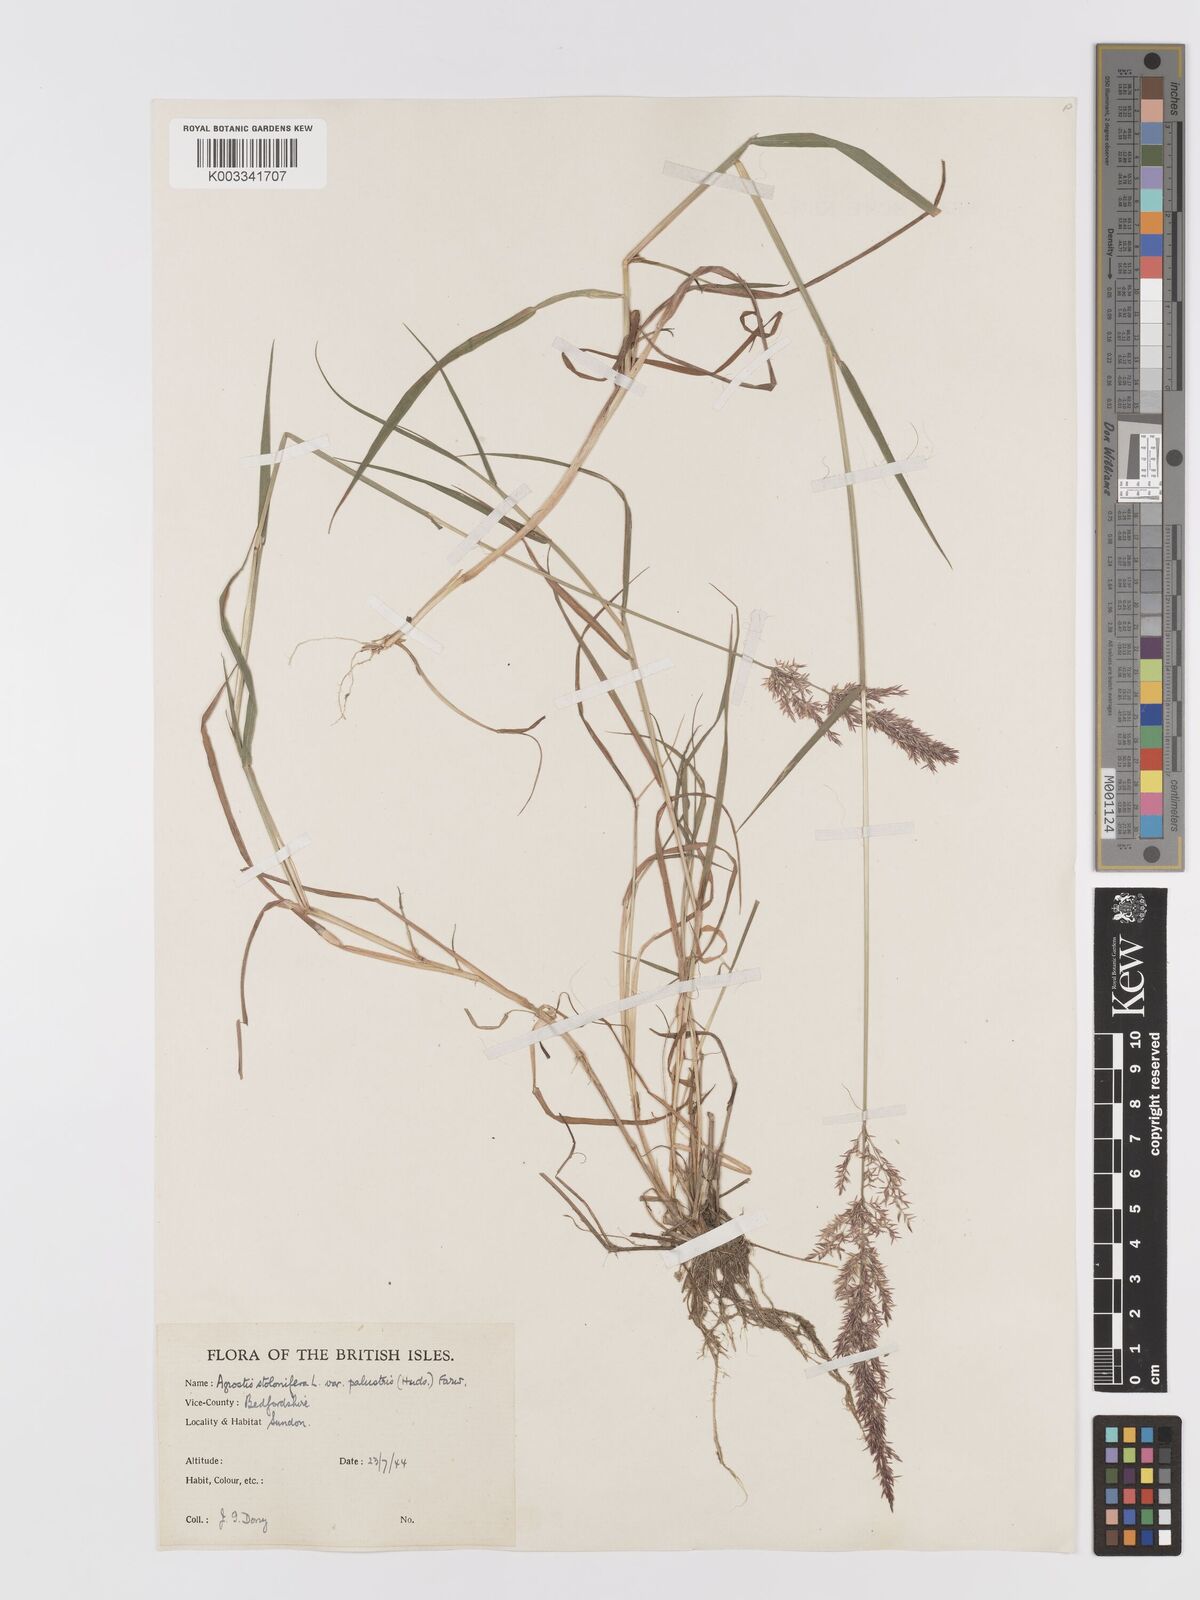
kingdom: Plantae
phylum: Tracheophyta
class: Liliopsida
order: Poales
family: Poaceae
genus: Agrostis
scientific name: Agrostis stolonifera
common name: Creeping bentgrass
